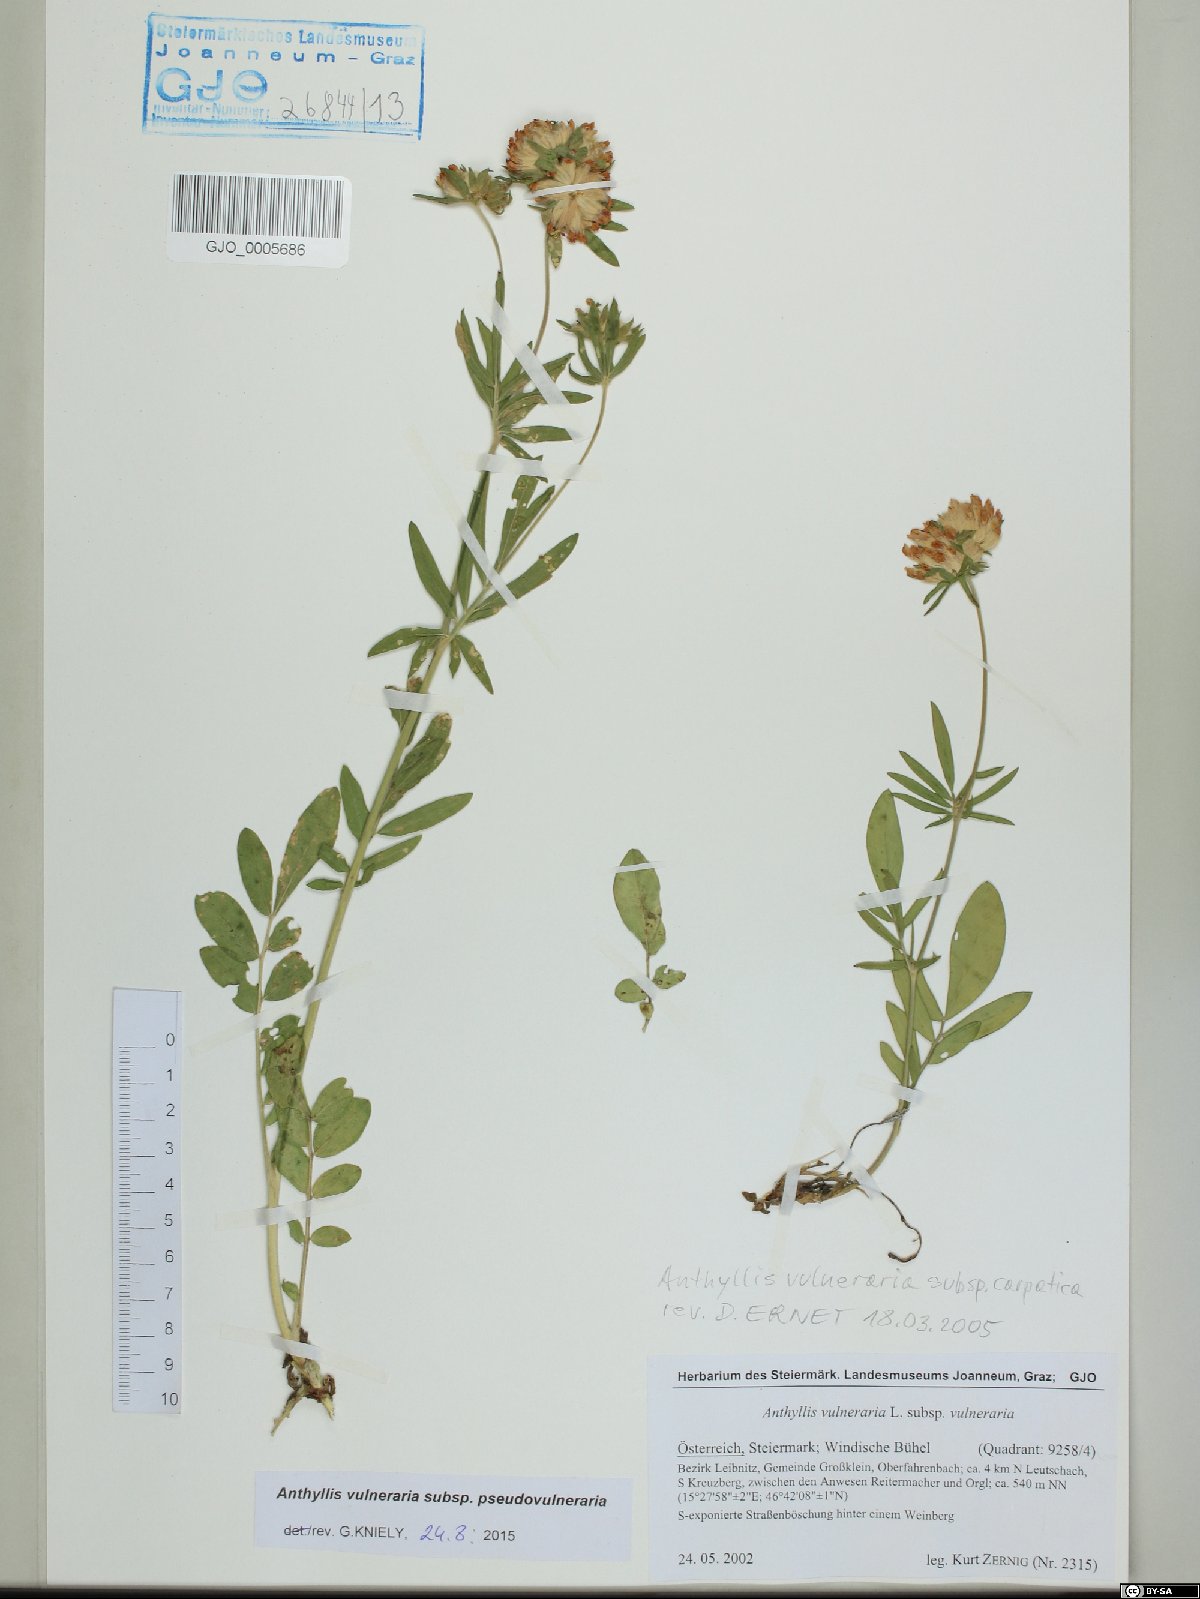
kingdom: Plantae
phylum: Tracheophyta
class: Magnoliopsida
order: Fabales
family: Fabaceae
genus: Anthyllis
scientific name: Anthyllis vulneraria
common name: Kidney vetch
